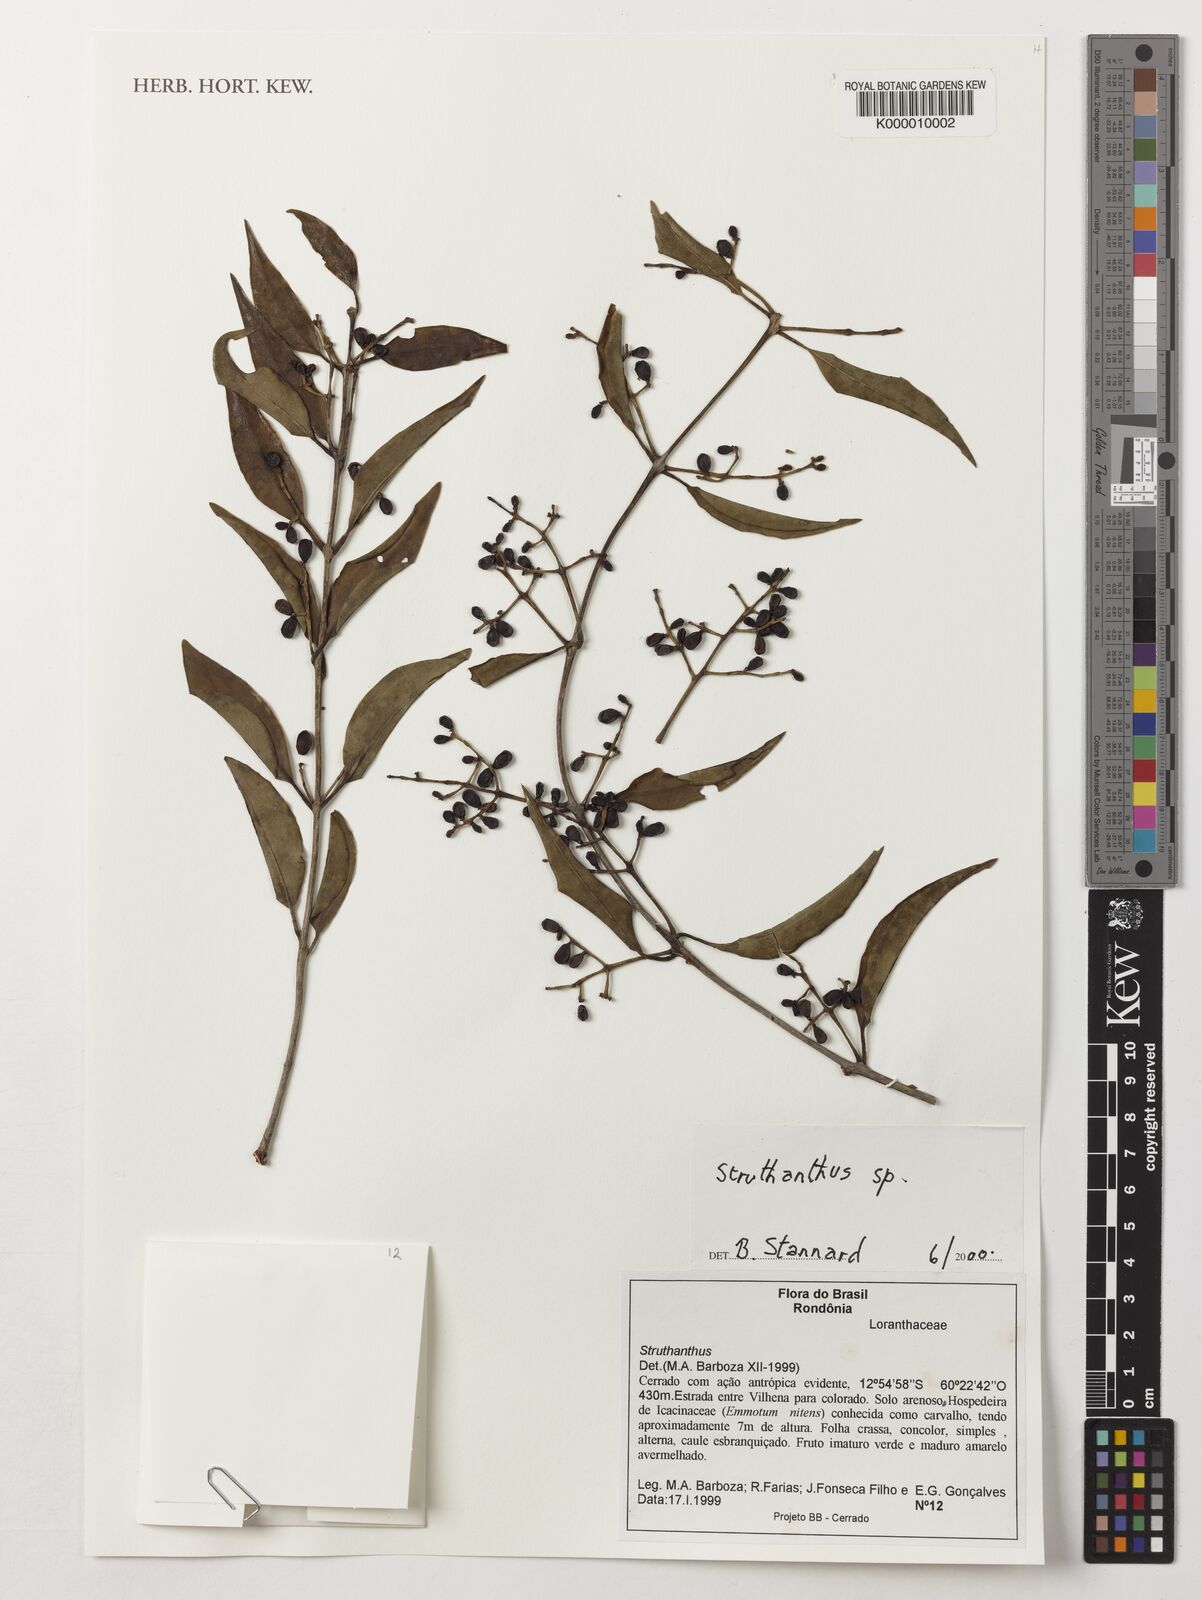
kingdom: Plantae
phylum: Tracheophyta
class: Magnoliopsida
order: Santalales
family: Loranthaceae
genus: Struthanthus
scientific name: Struthanthus
